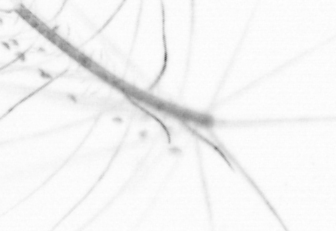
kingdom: Chromista
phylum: Ochrophyta
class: Bacillariophyceae
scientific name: Bacillariophyceae
